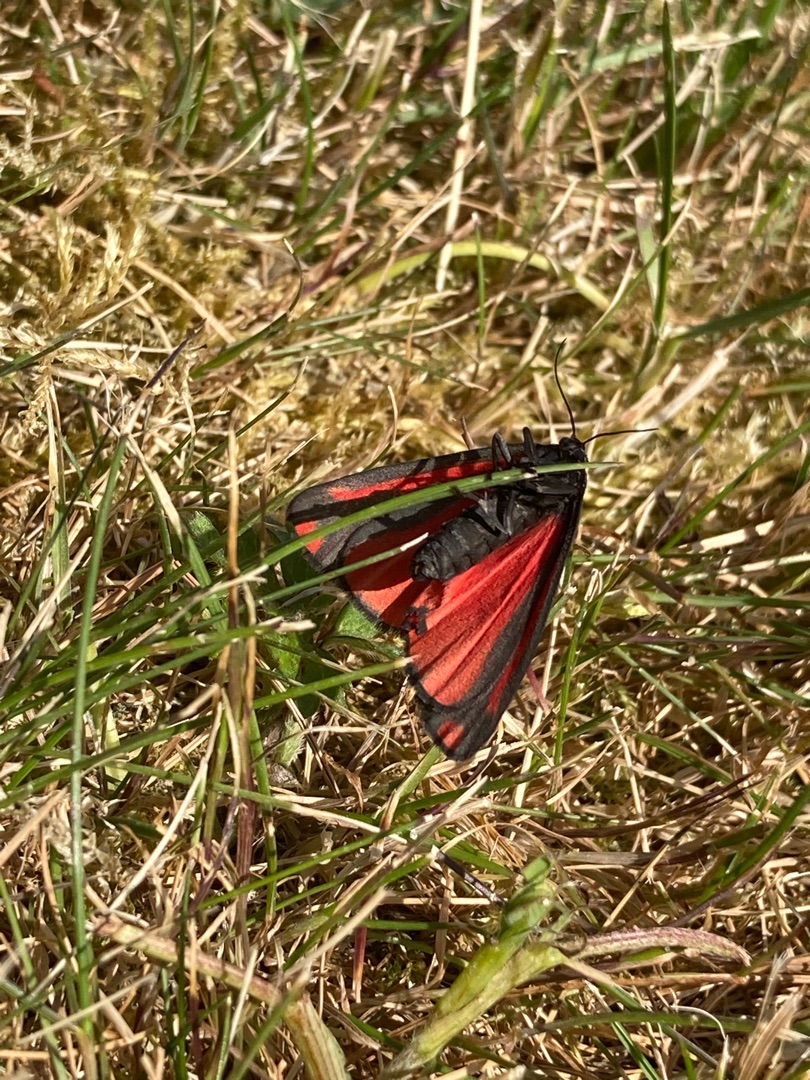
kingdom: Animalia
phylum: Arthropoda
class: Insecta
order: Lepidoptera
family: Erebidae
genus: Tyria
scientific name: Tyria jacobaeae
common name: Blodplet
